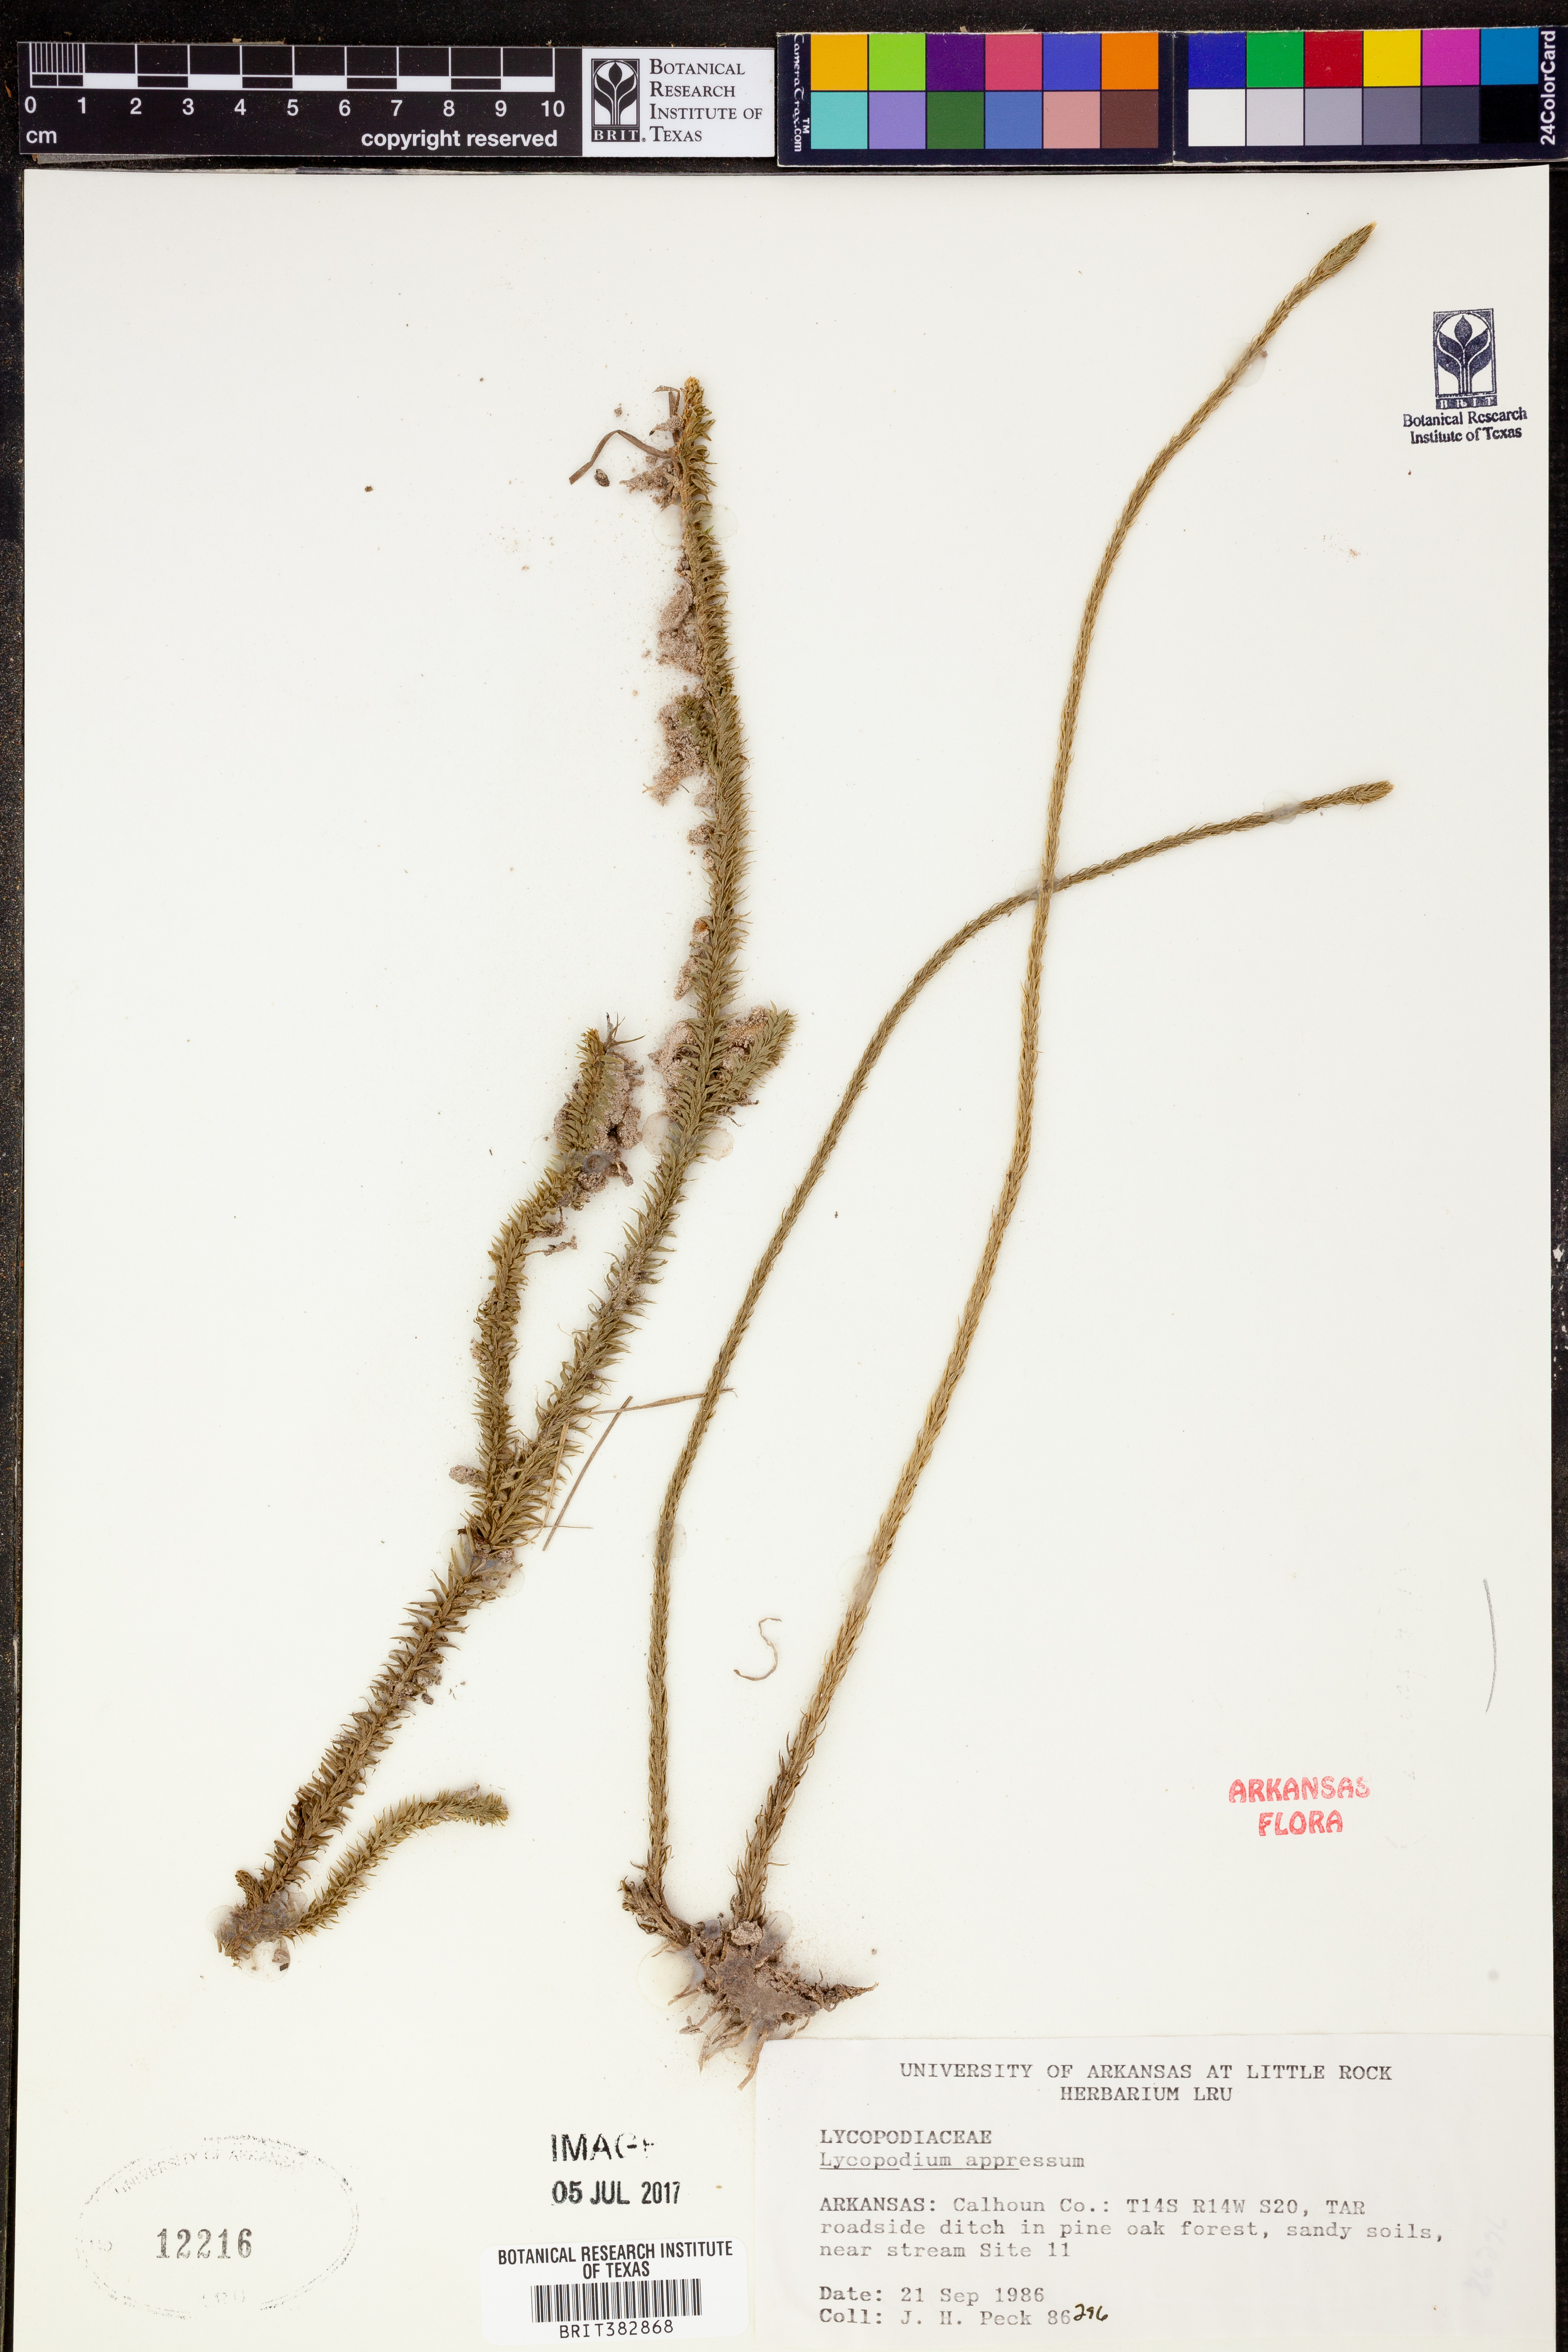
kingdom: Plantae
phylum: Tracheophyta
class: Lycopodiopsida
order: Lycopodiales
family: Lycopodiaceae
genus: Lycopodiella
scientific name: Lycopodiella appressa
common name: Appressed bog clubmoss
